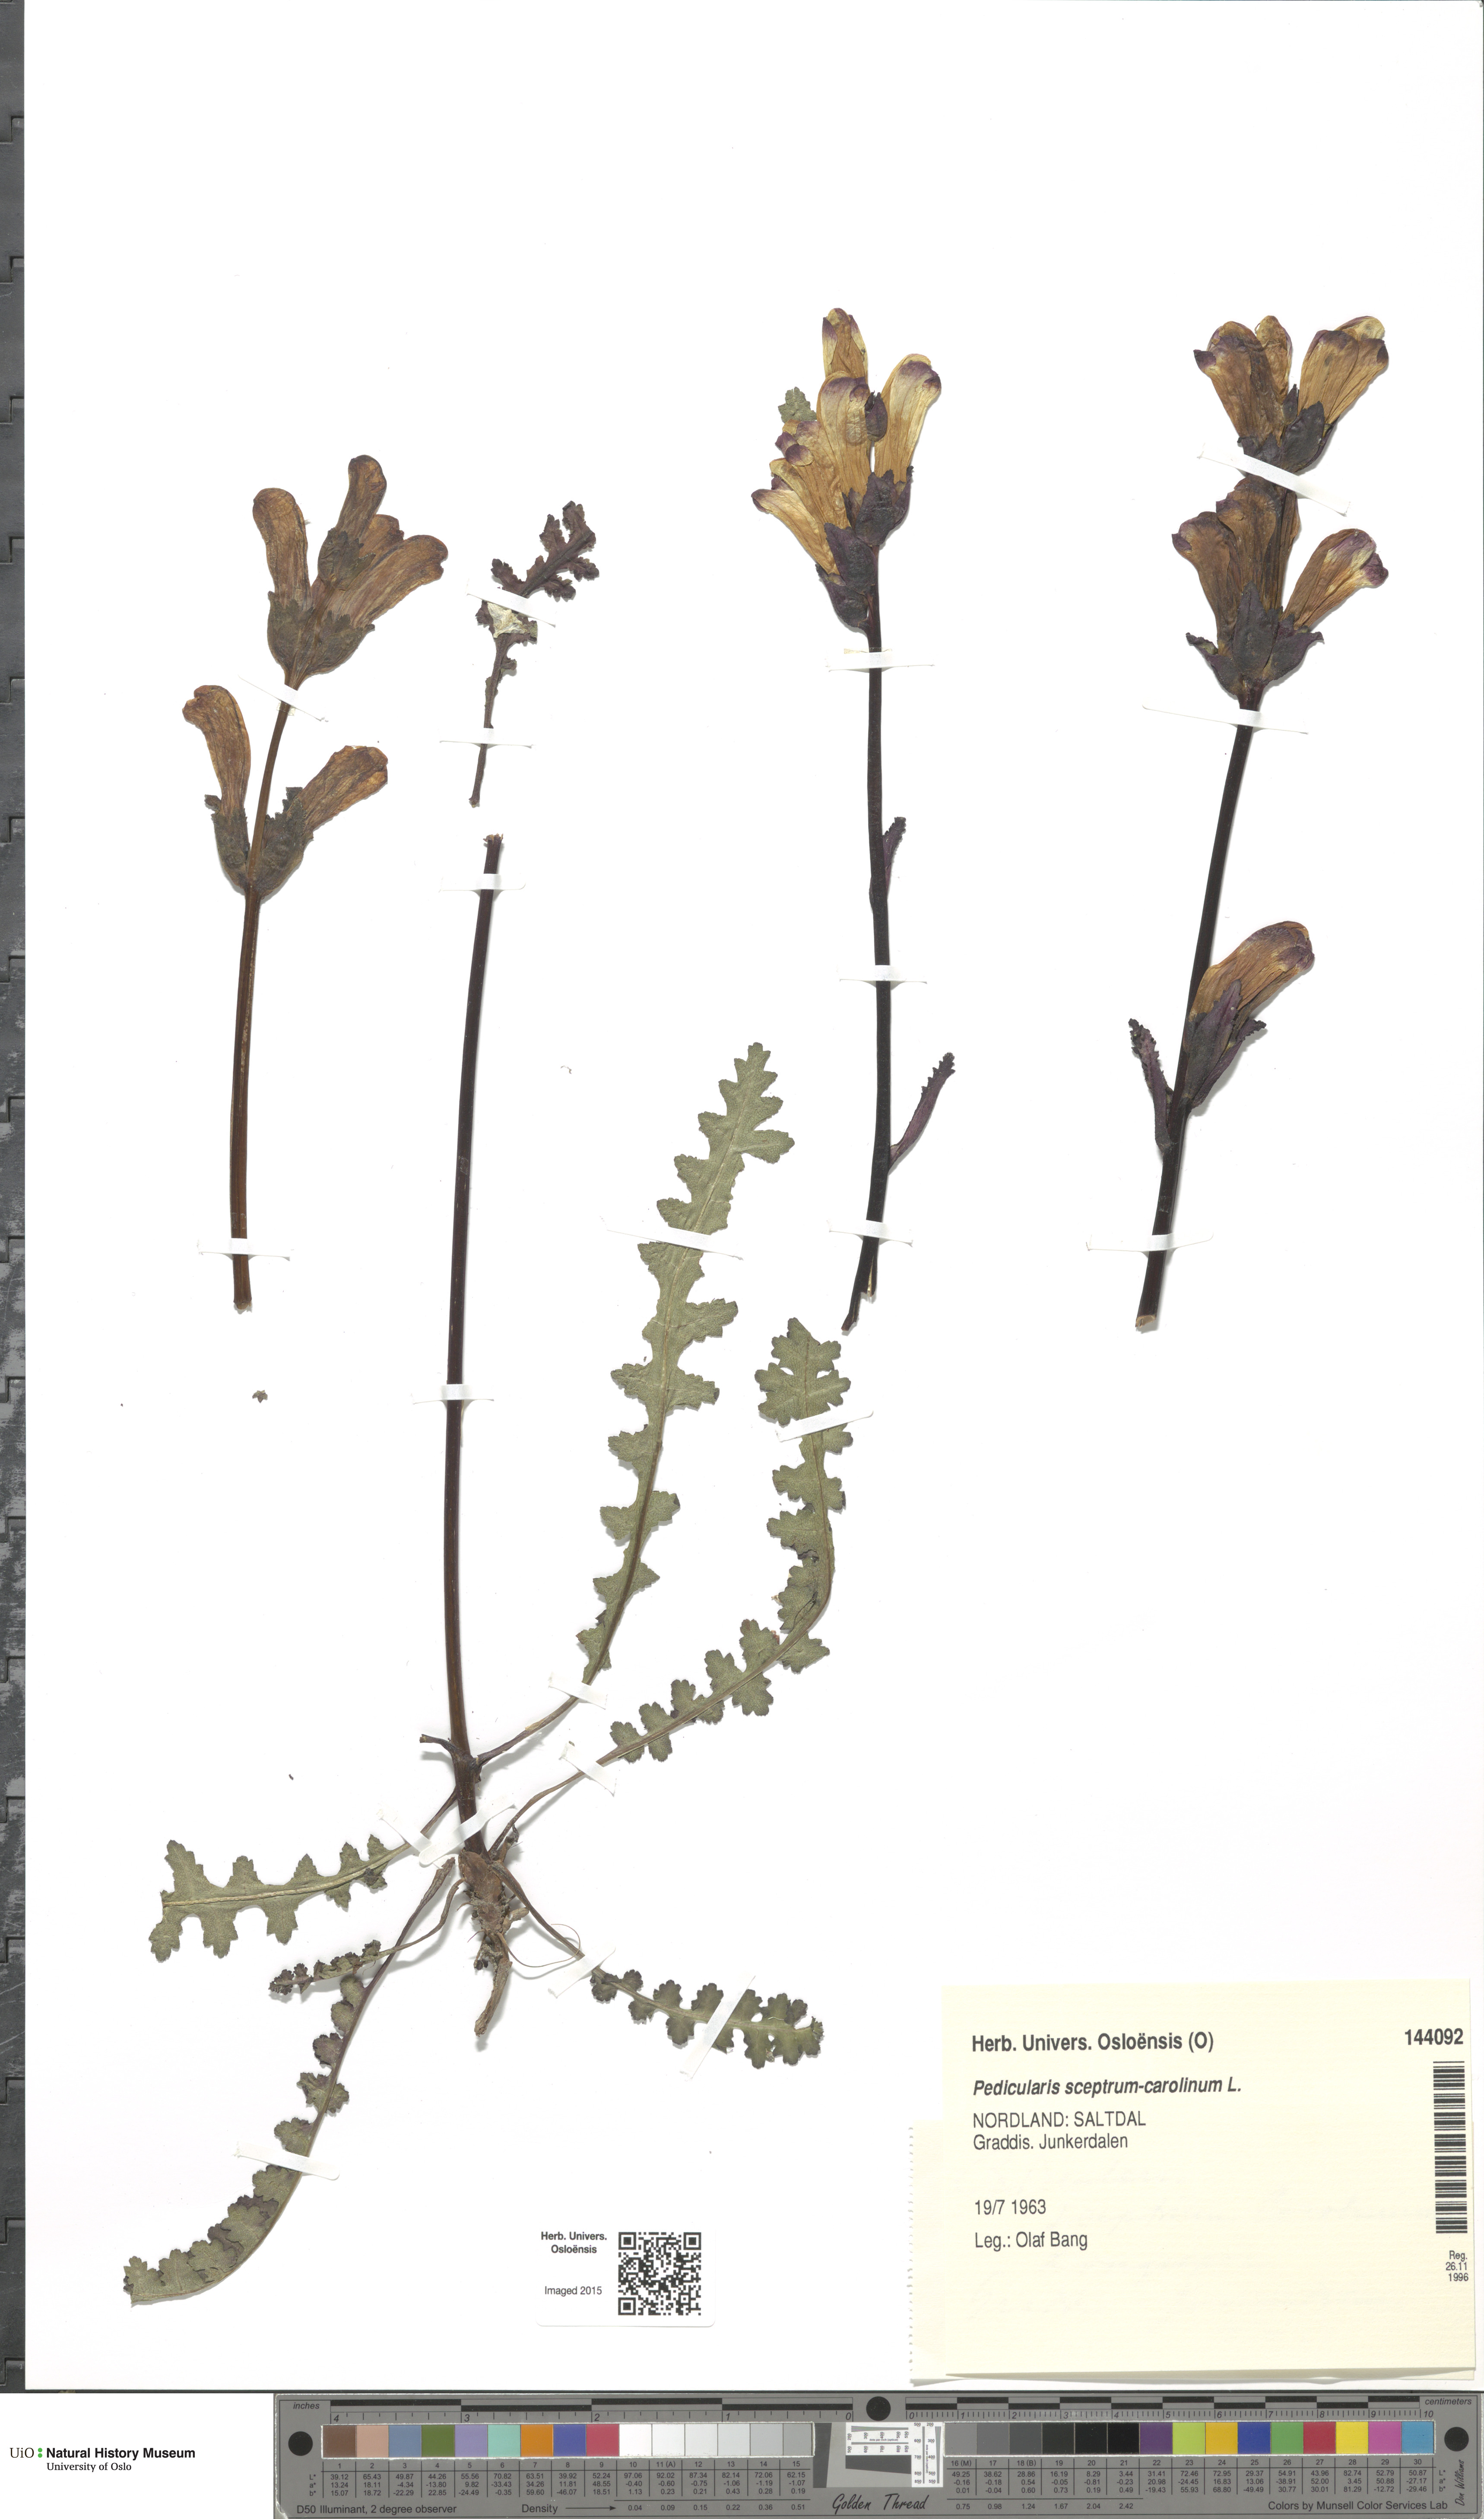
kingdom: Plantae
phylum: Tracheophyta
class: Magnoliopsida
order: Lamiales
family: Orobanchaceae
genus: Pedicularis
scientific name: Pedicularis sceptrum-carolinum
